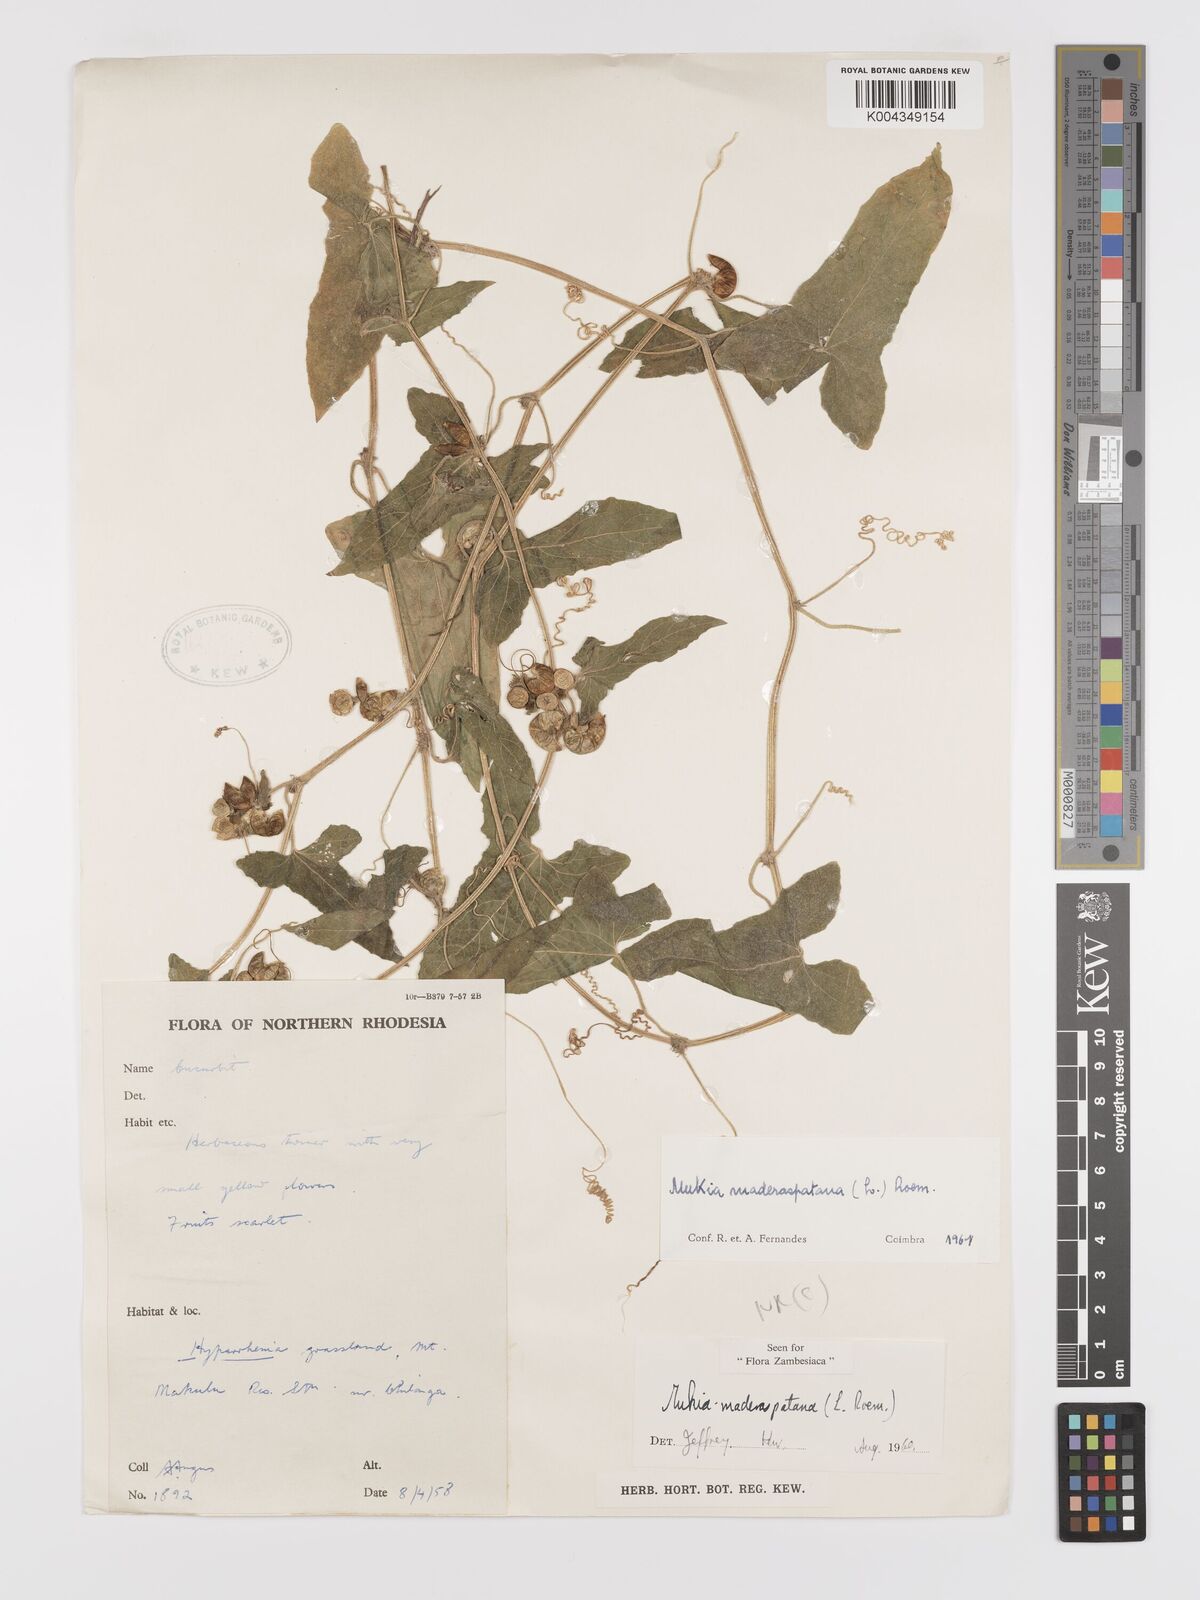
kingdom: Plantae
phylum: Tracheophyta
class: Magnoliopsida
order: Cucurbitales
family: Cucurbitaceae
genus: Cucumis
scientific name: Cucumis maderaspatanus
